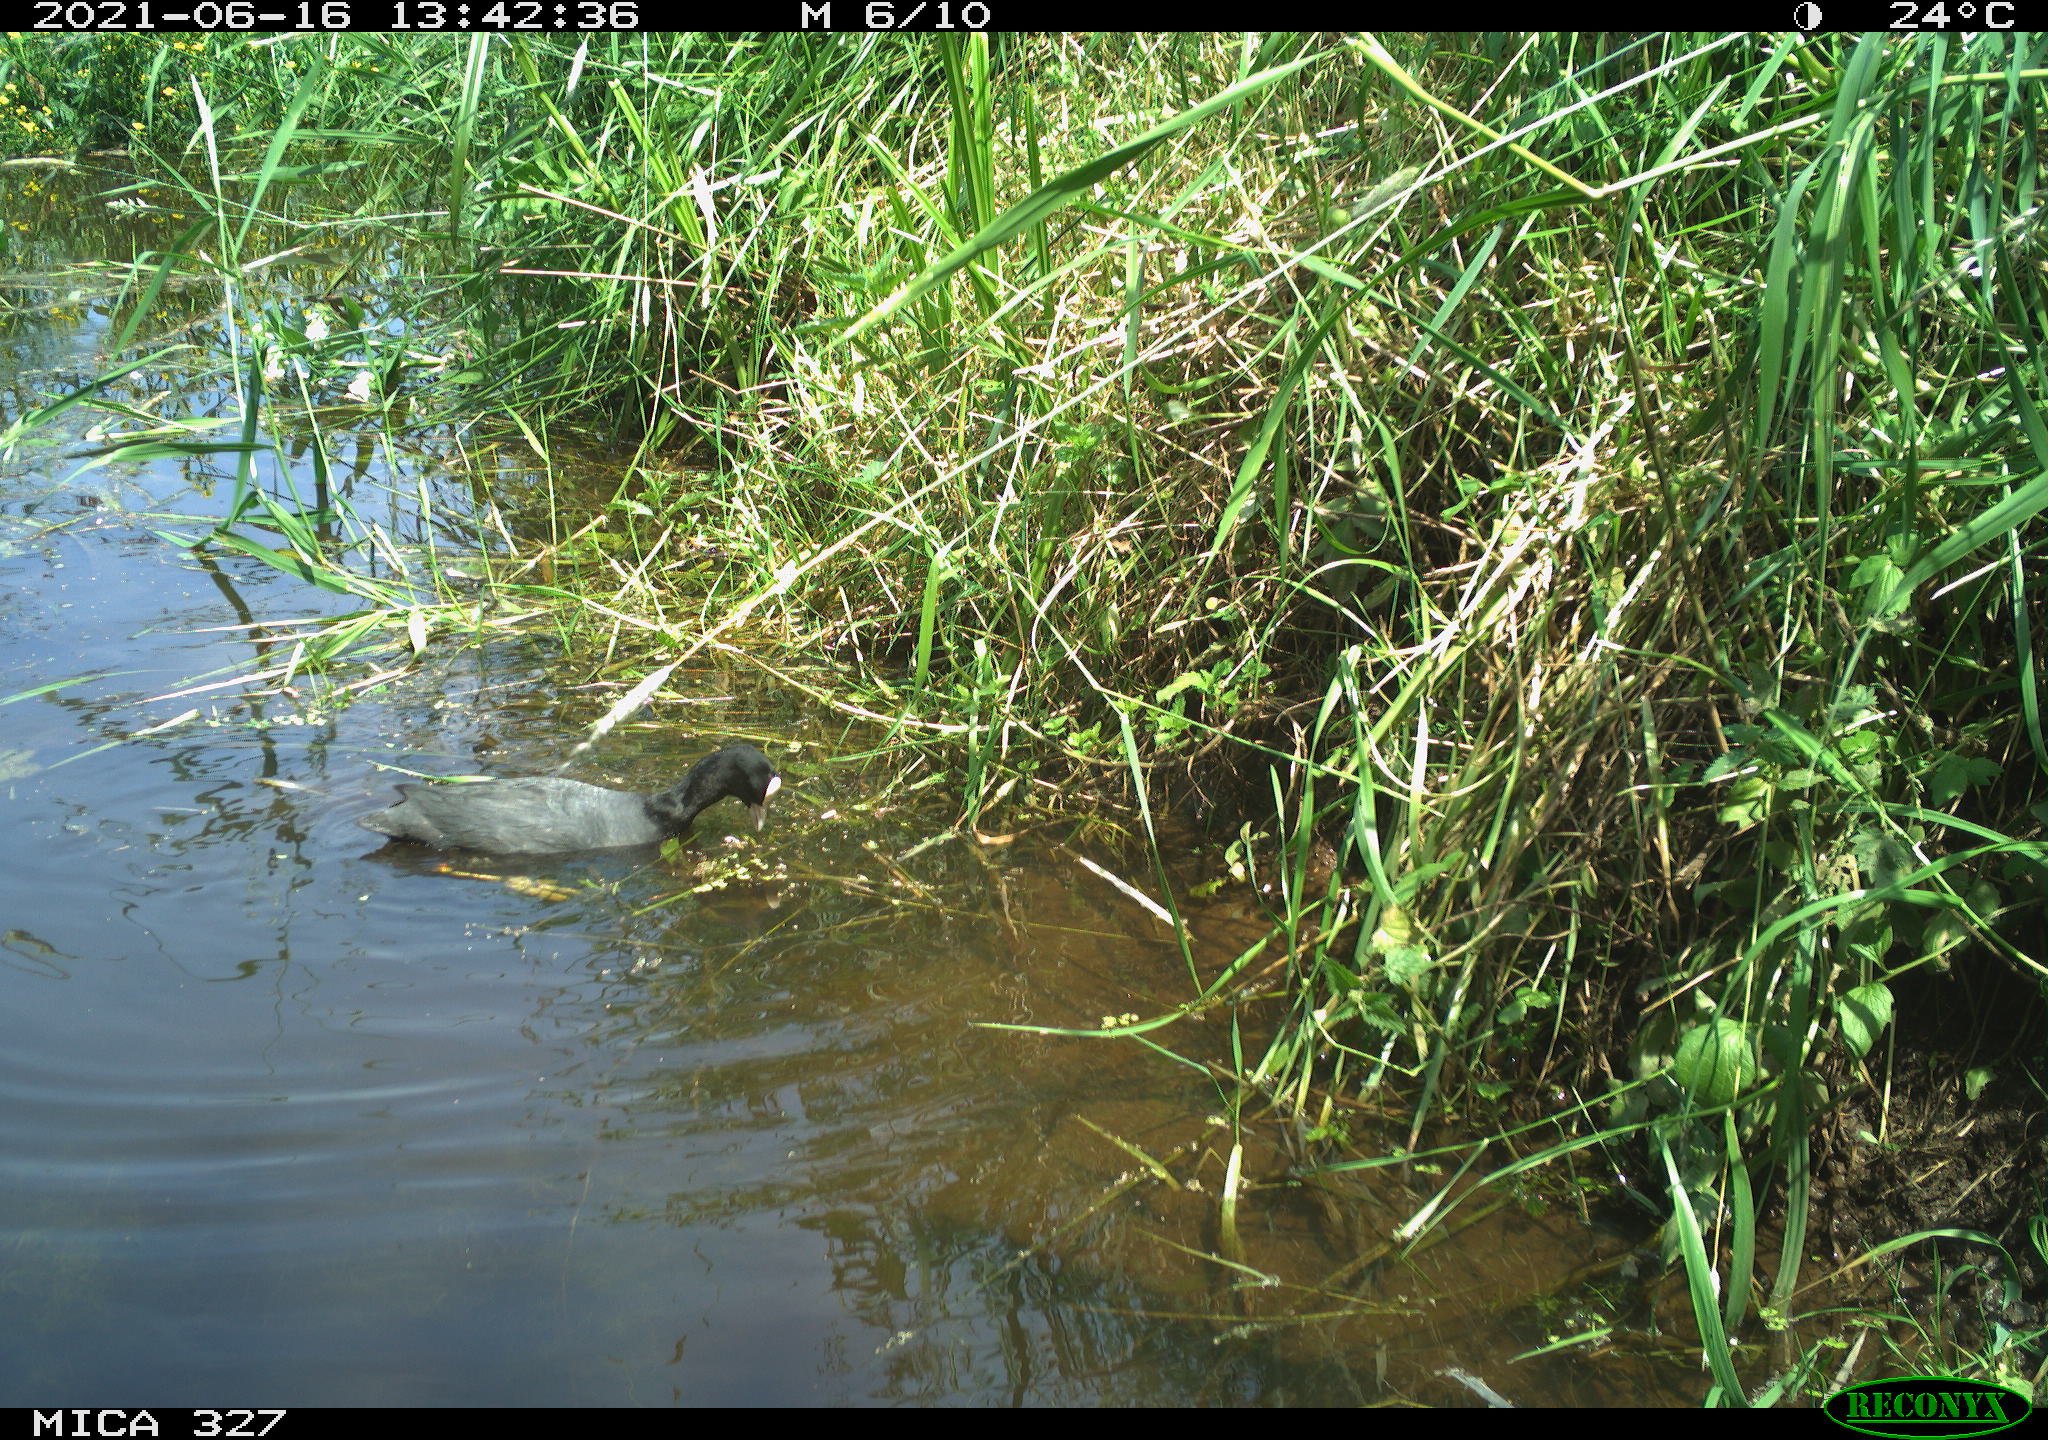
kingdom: Animalia
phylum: Chordata
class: Aves
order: Gruiformes
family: Rallidae
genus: Fulica
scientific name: Fulica atra
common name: Eurasian coot
